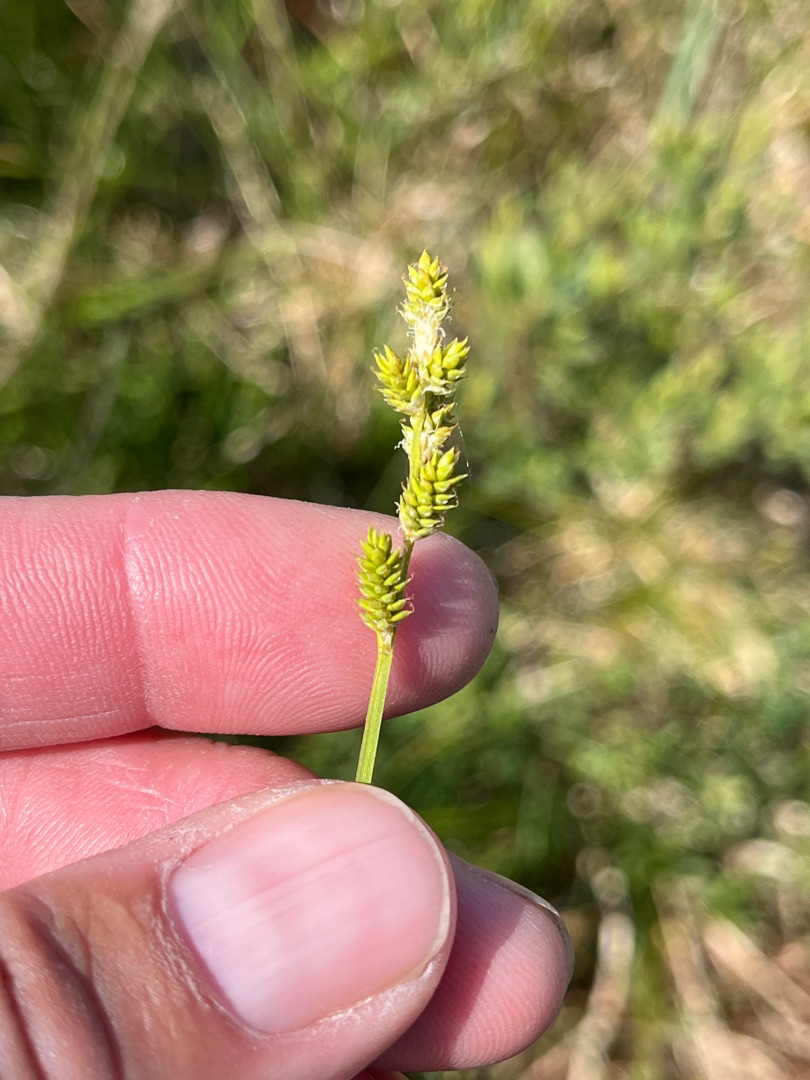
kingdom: Plantae
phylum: Tracheophyta
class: Liliopsida
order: Poales
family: Cyperaceae
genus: Carex
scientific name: Carex canescens
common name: Grå star
